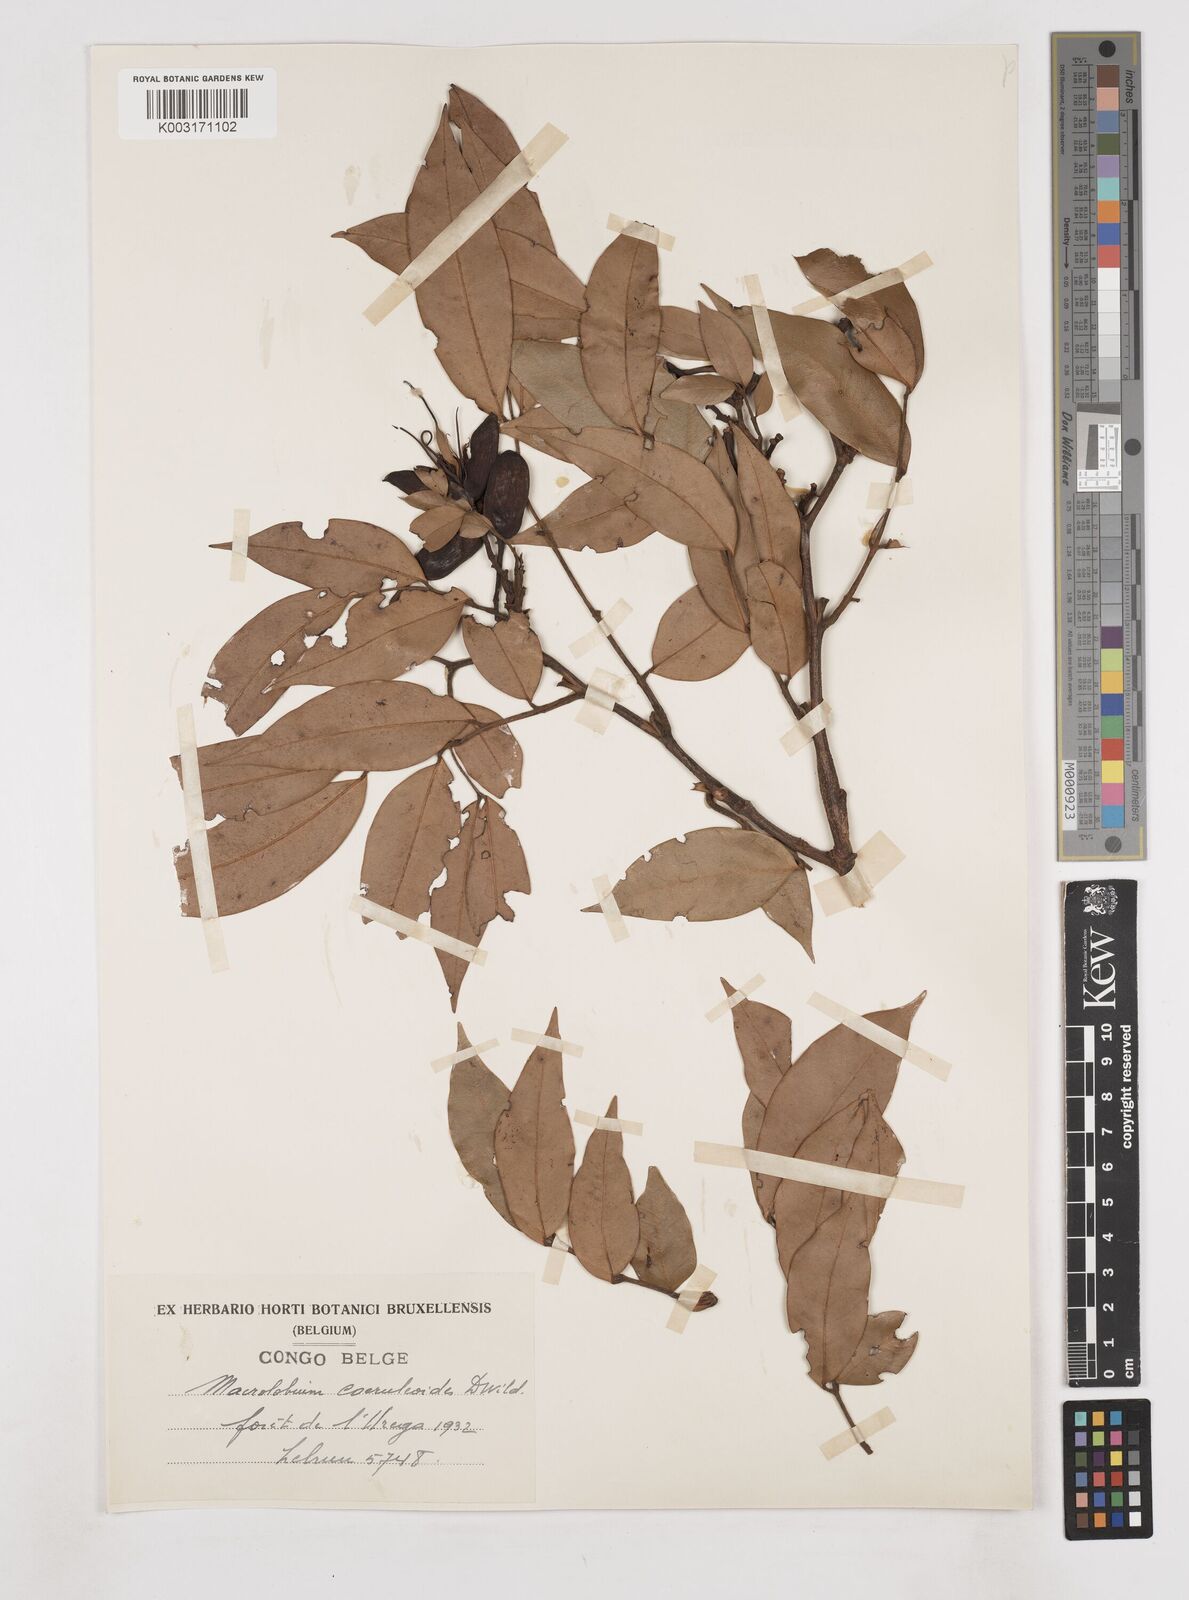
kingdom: Plantae
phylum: Tracheophyta
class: Magnoliopsida
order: Fabales
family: Fabaceae
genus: Paramacrolobium
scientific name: Paramacrolobium coeruleum
